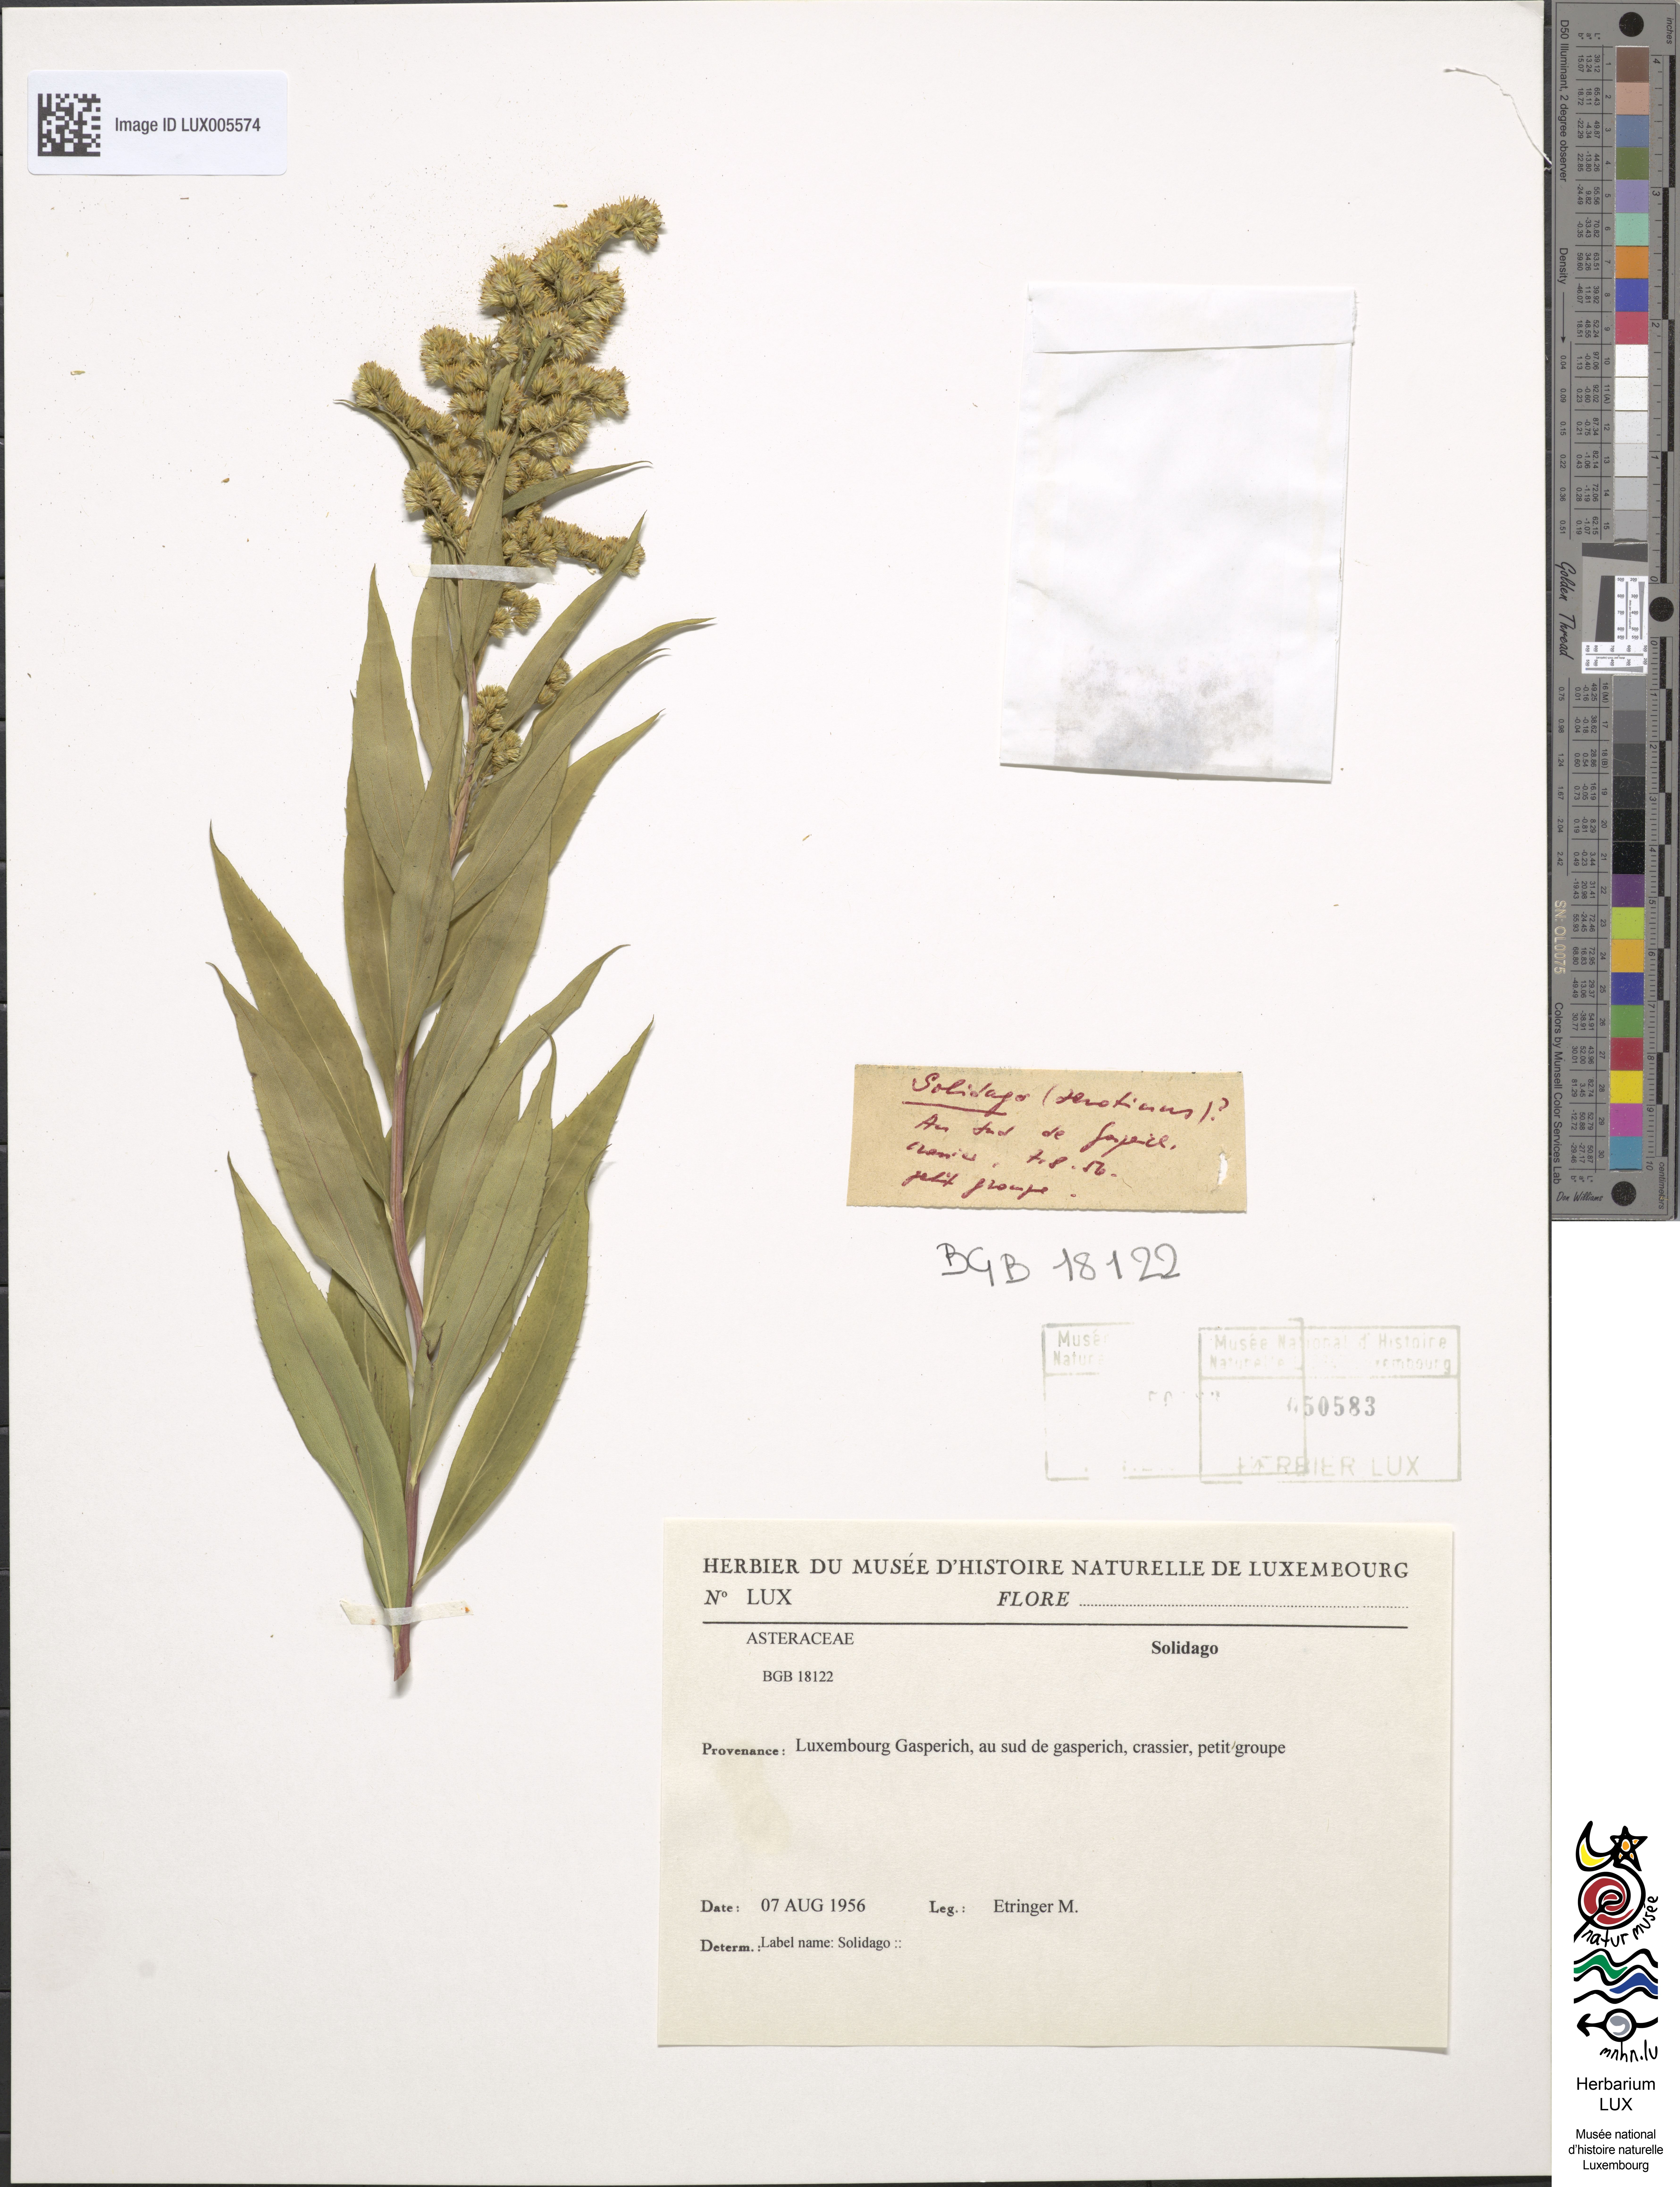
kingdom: Plantae
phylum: Tracheophyta
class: Magnoliopsida
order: Asterales
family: Asteraceae
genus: Solidago
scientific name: Solidago
